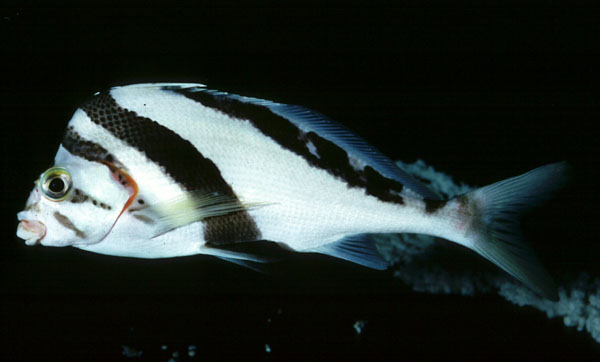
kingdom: Animalia
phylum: Chordata
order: Perciformes
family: Cheilodactylidae
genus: Cheilodactylus
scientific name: Cheilodactylus vittatus
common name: Hawaiian morwong
